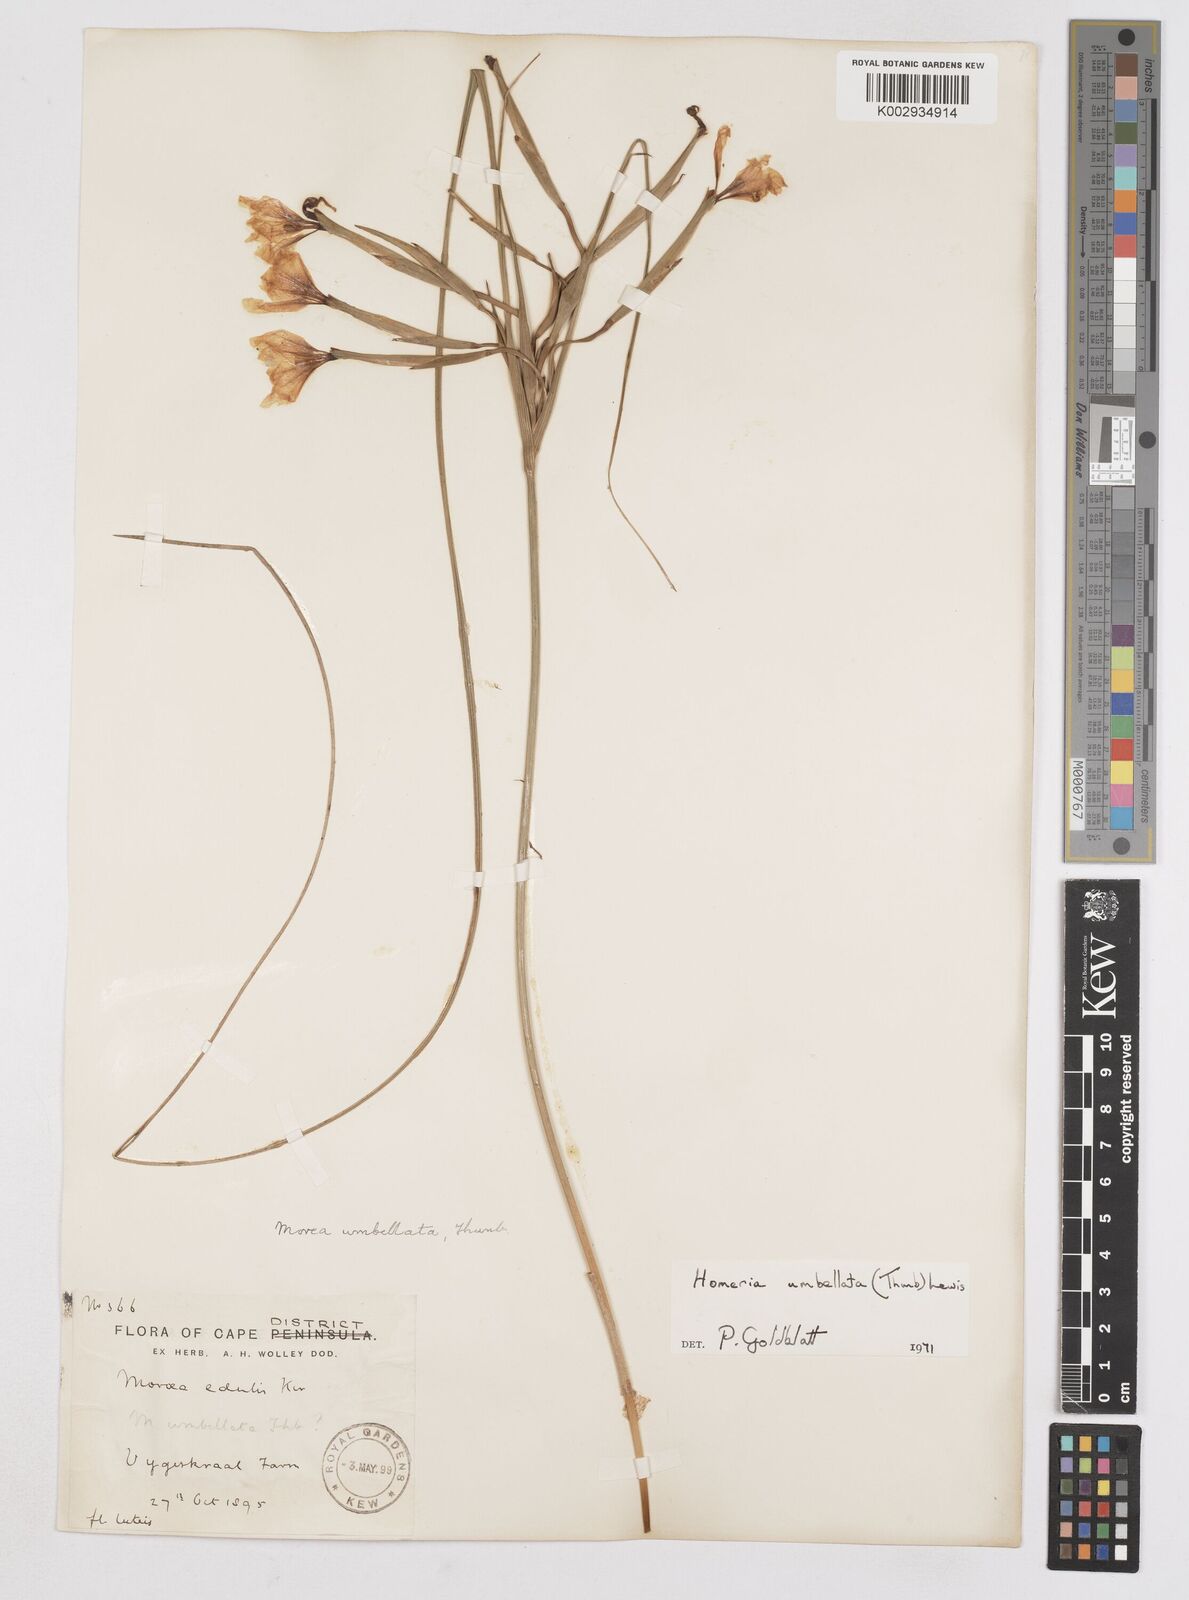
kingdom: Plantae
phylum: Tracheophyta
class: Liliopsida
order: Asparagales
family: Iridaceae
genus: Moraea
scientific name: Moraea umbellata
